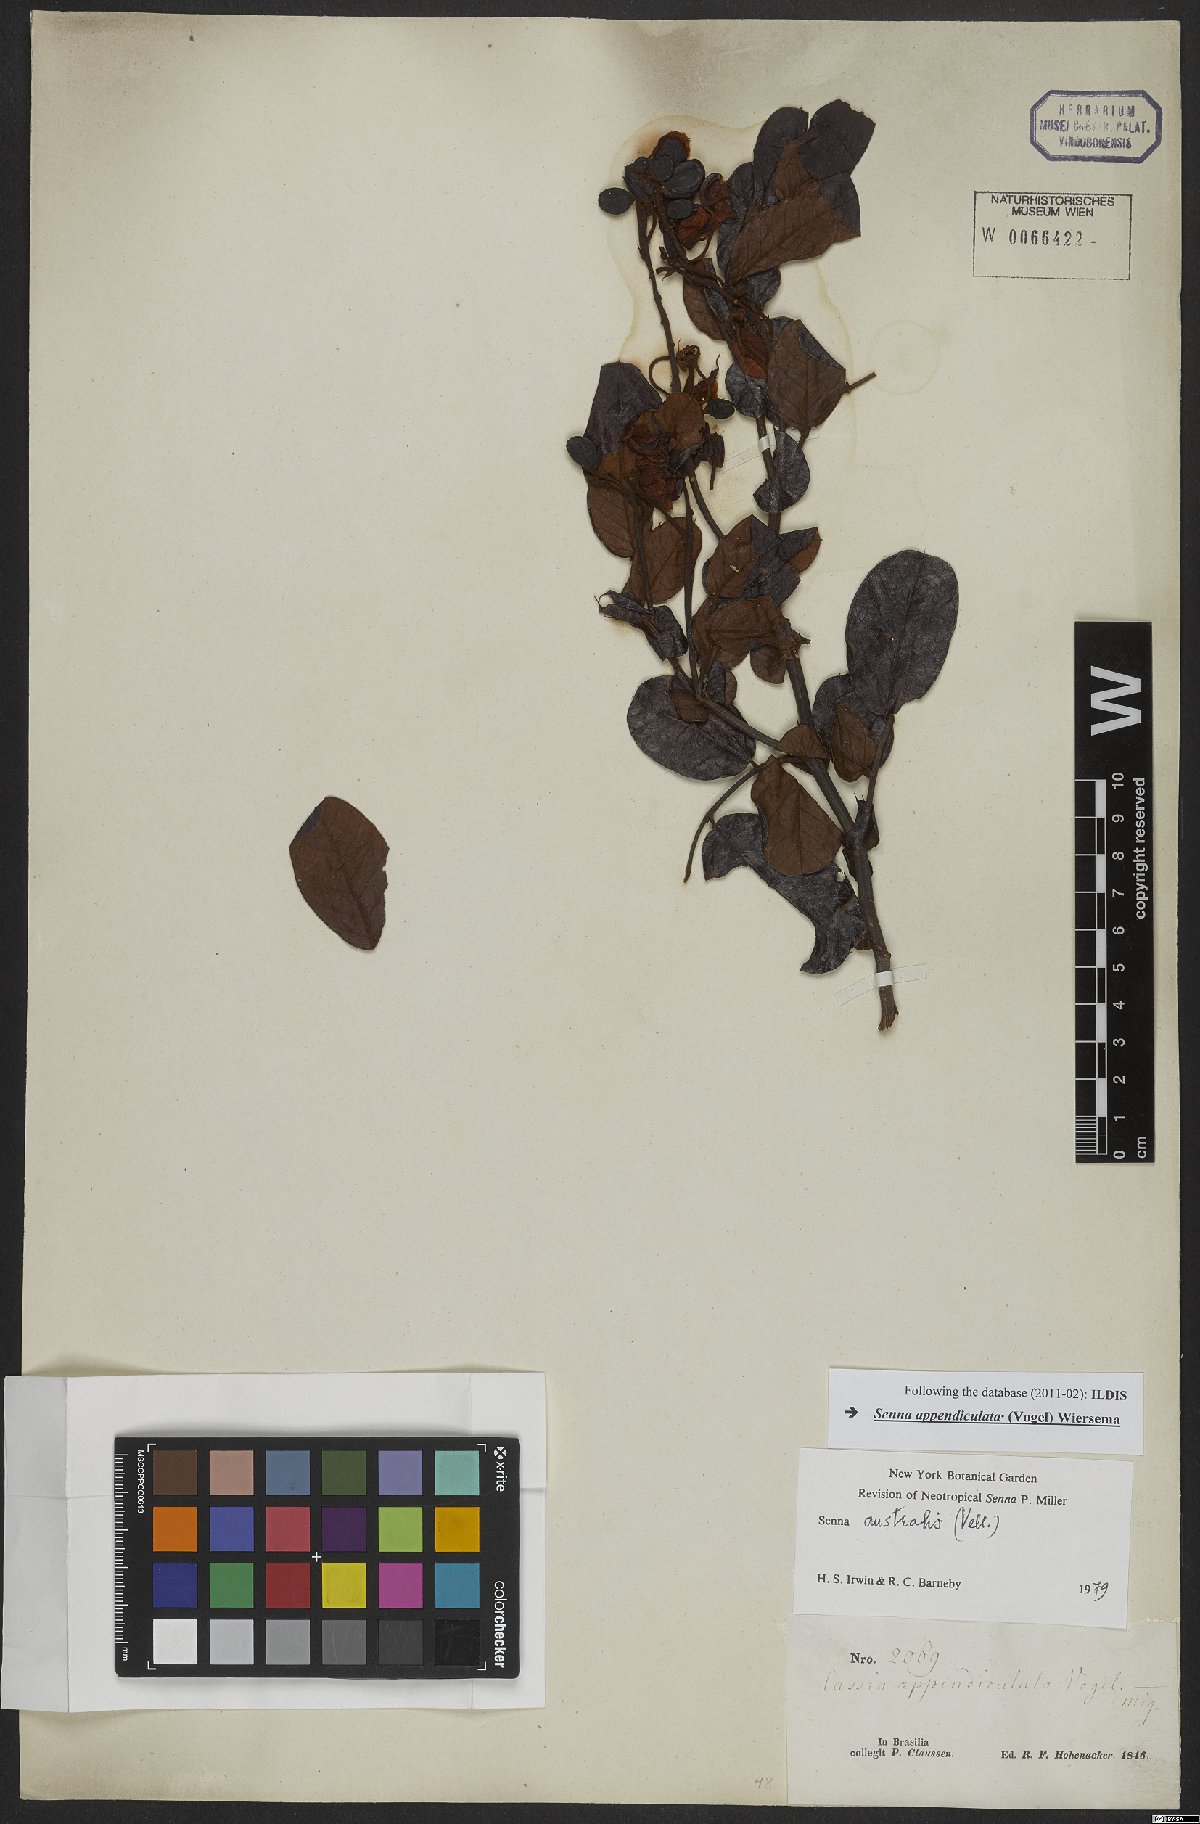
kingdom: Plantae
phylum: Tracheophyta
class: Magnoliopsida
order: Fabales
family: Fabaceae
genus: Senna
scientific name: Senna appendiculata
